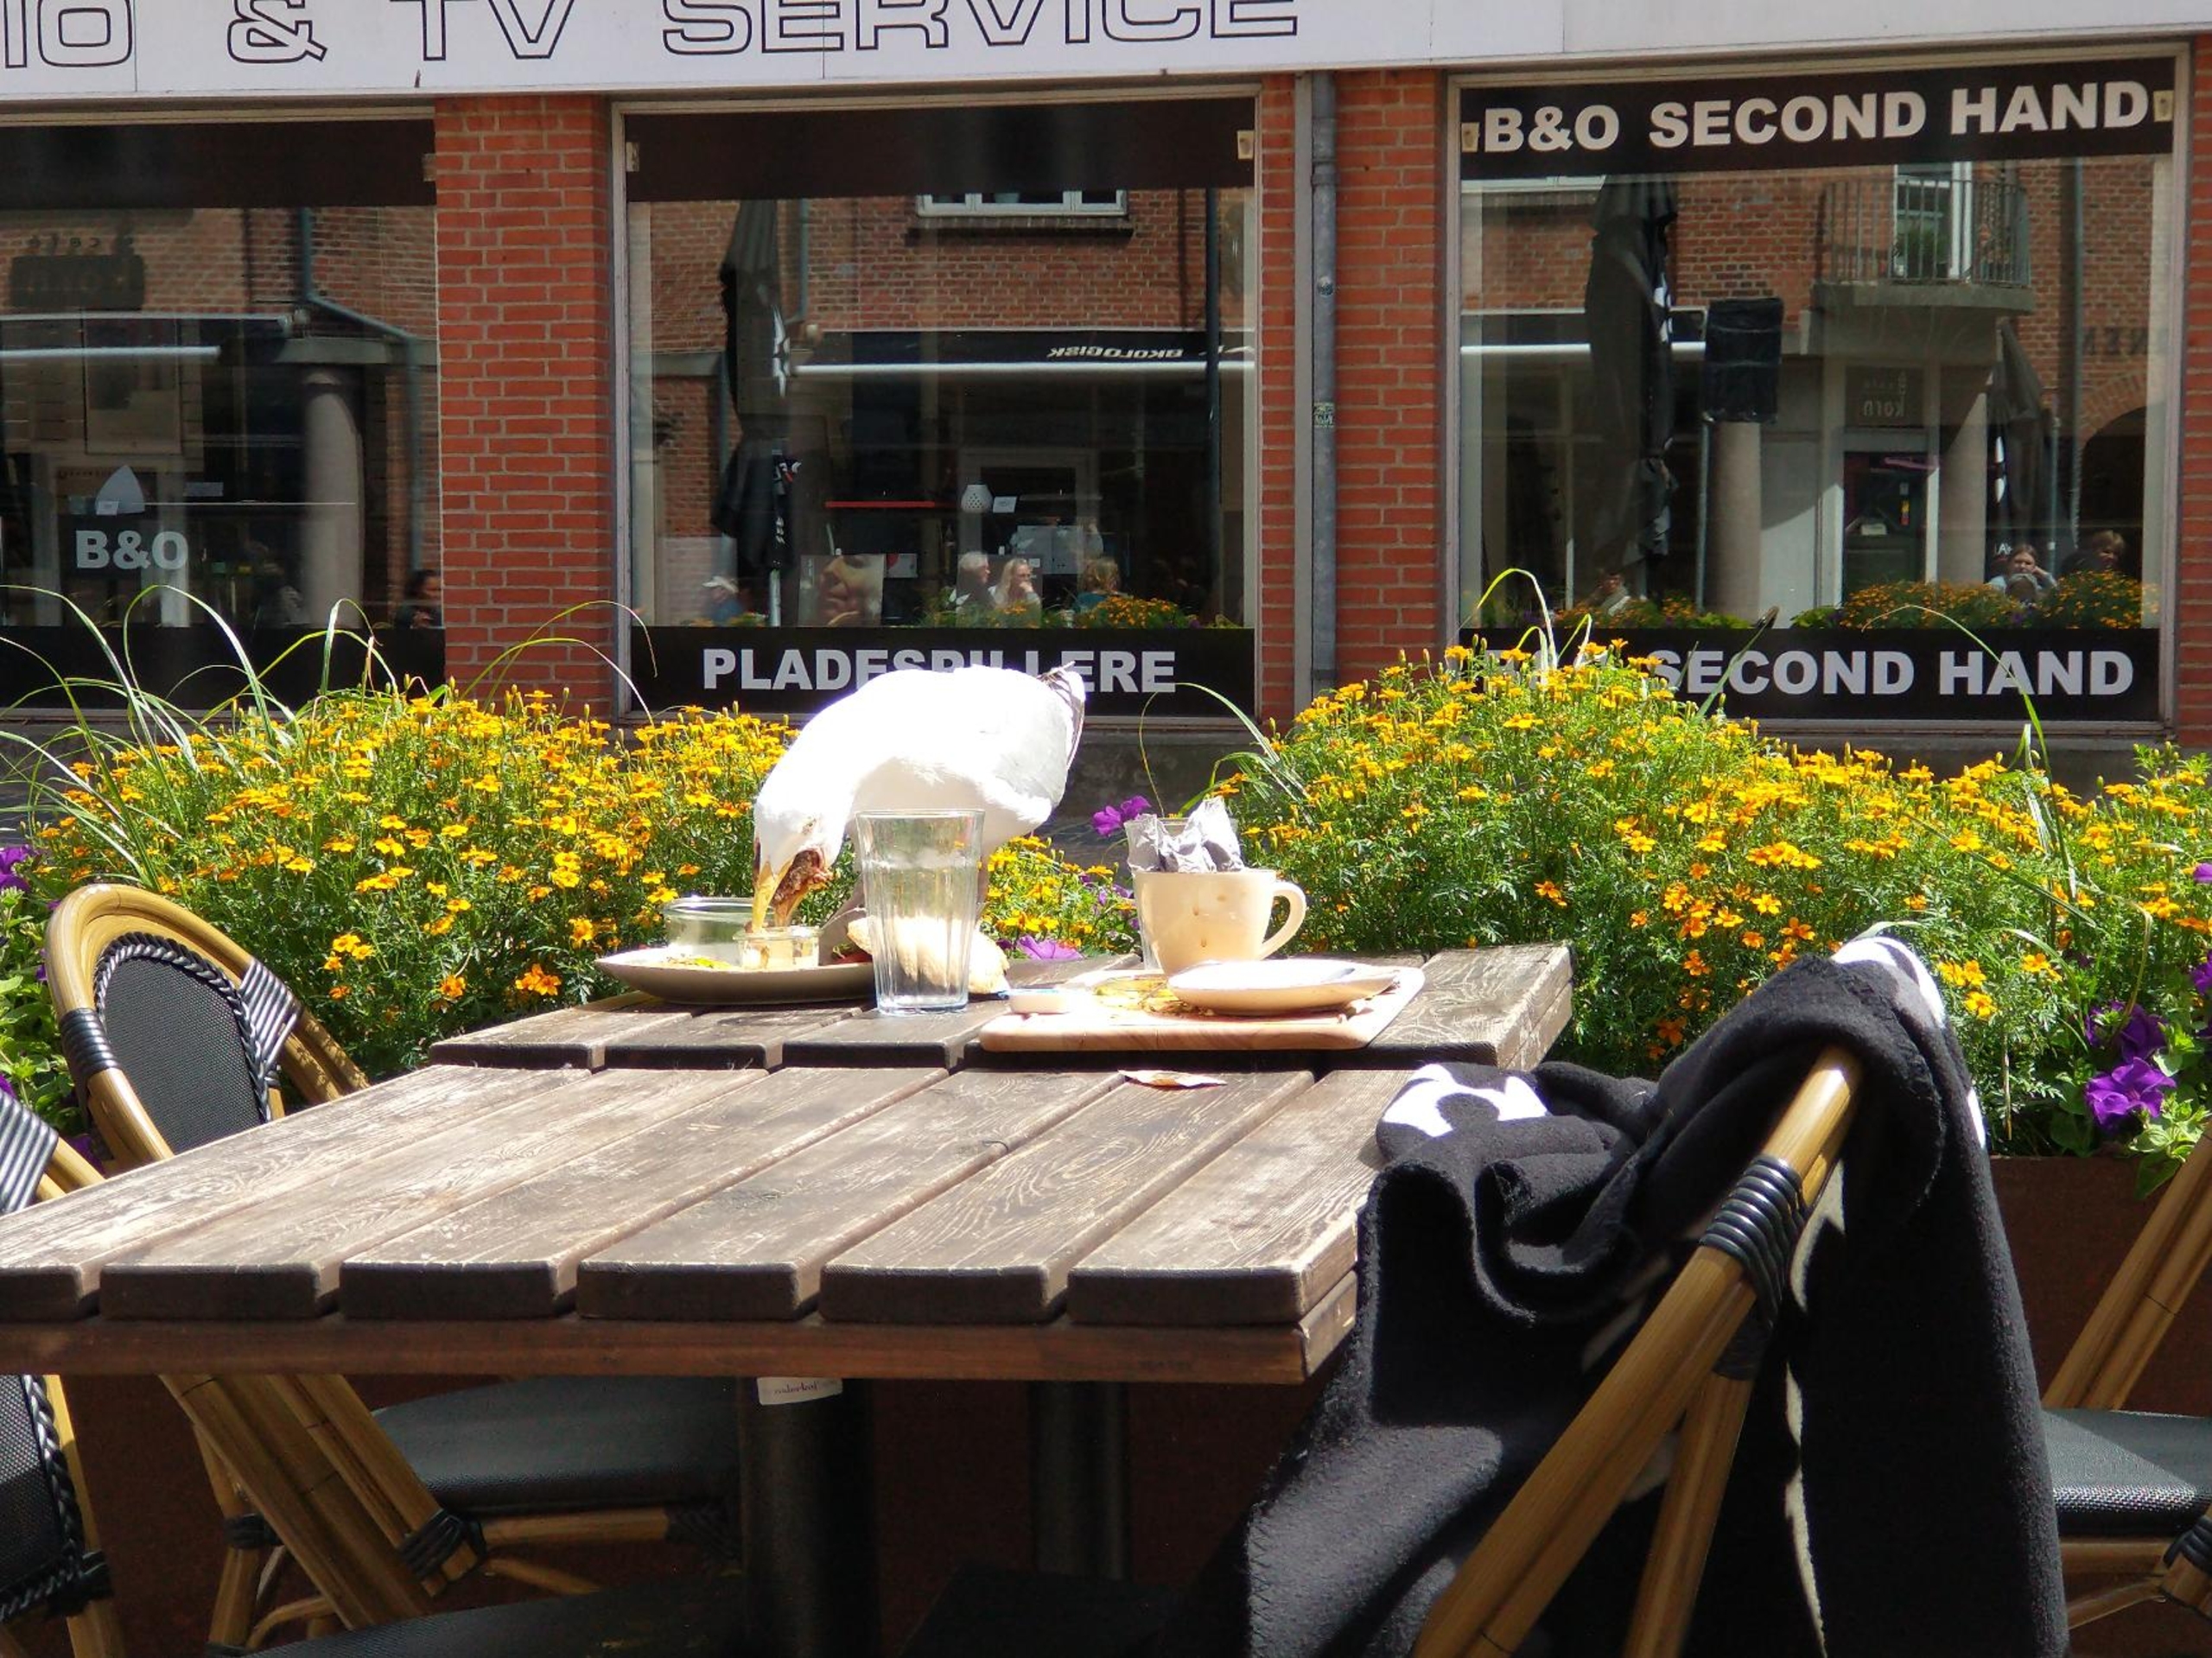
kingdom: Animalia
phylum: Chordata
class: Aves
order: Charadriiformes
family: Laridae
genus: Larus
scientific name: Larus argentatus
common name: Sølvmåge
